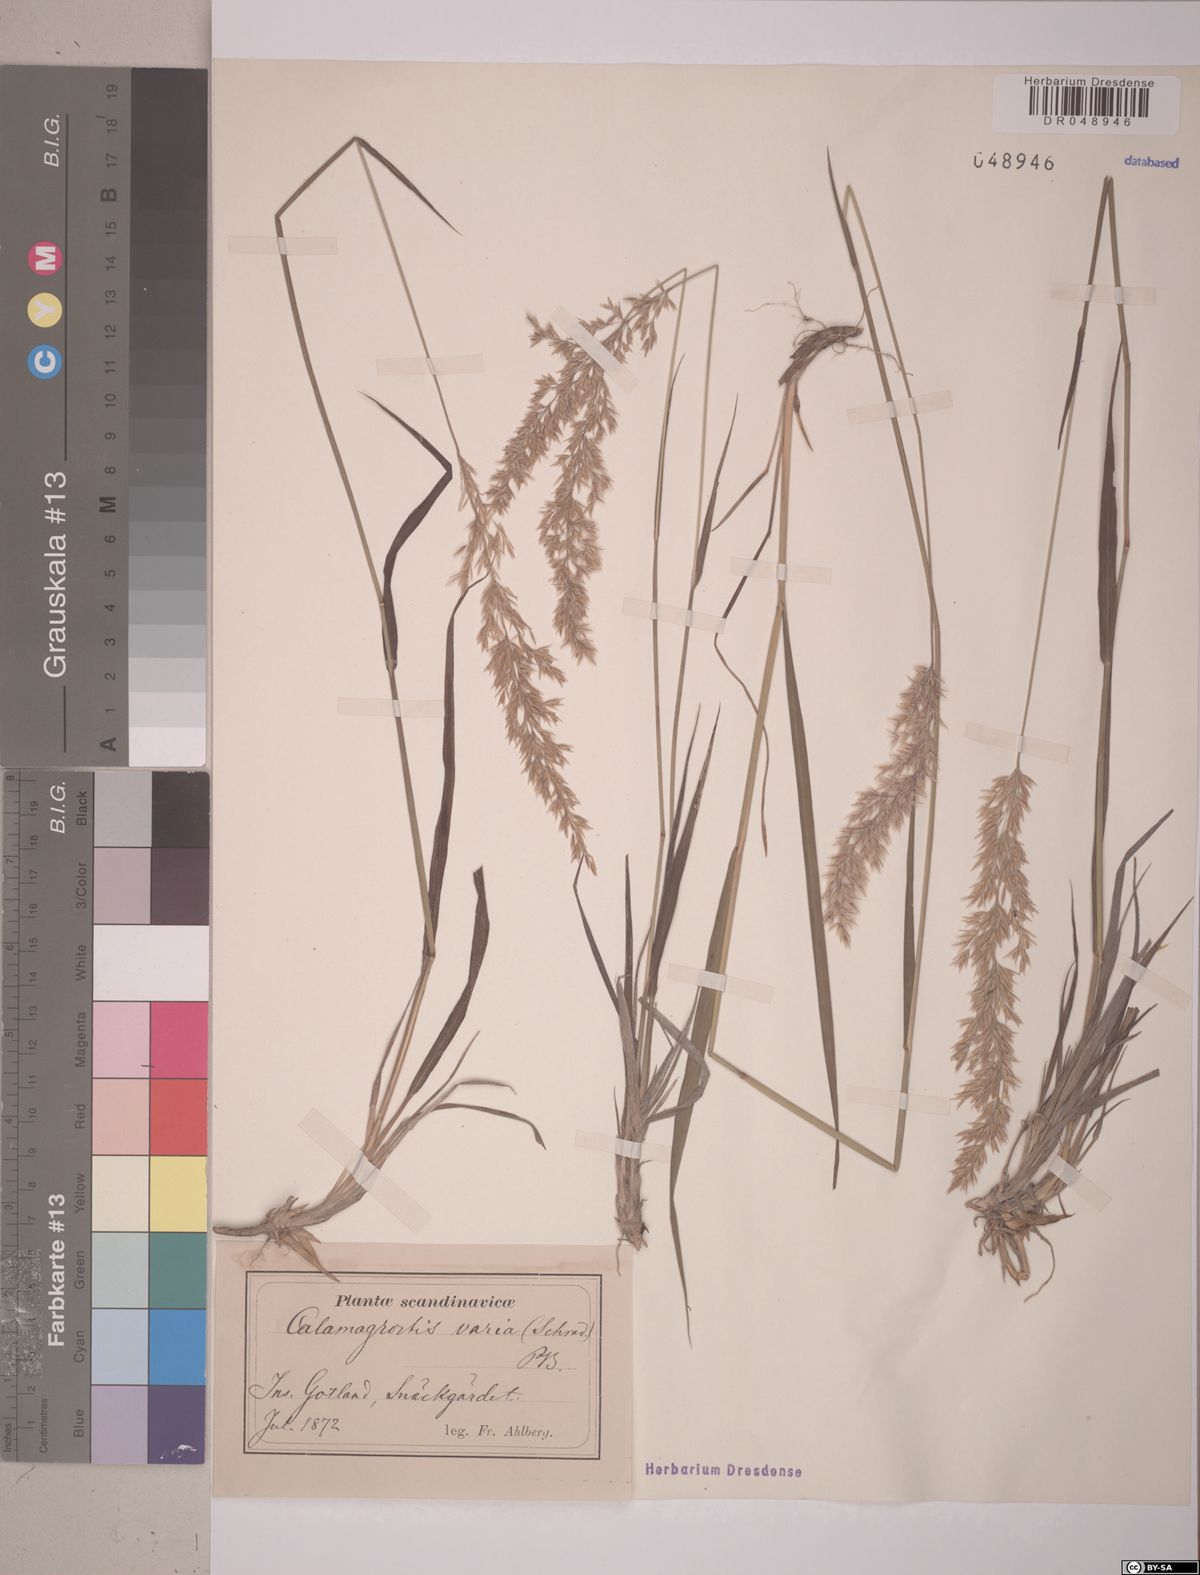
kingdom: Plantae
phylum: Tracheophyta
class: Liliopsida
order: Poales
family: Poaceae
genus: Calamagrostis
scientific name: Calamagrostis varia
